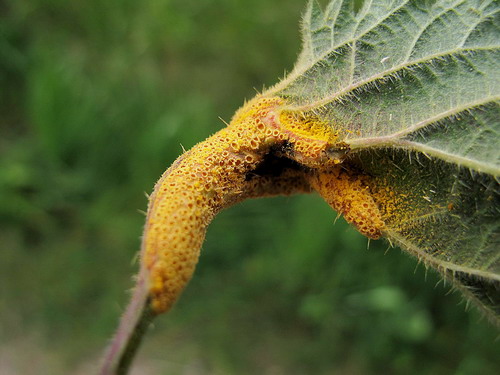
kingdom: Fungi
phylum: Basidiomycota
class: Pucciniomycetes
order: Pucciniales
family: Pucciniaceae
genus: Puccinia
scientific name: Puccinia urticata
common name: nældegalle-tvecellerust
